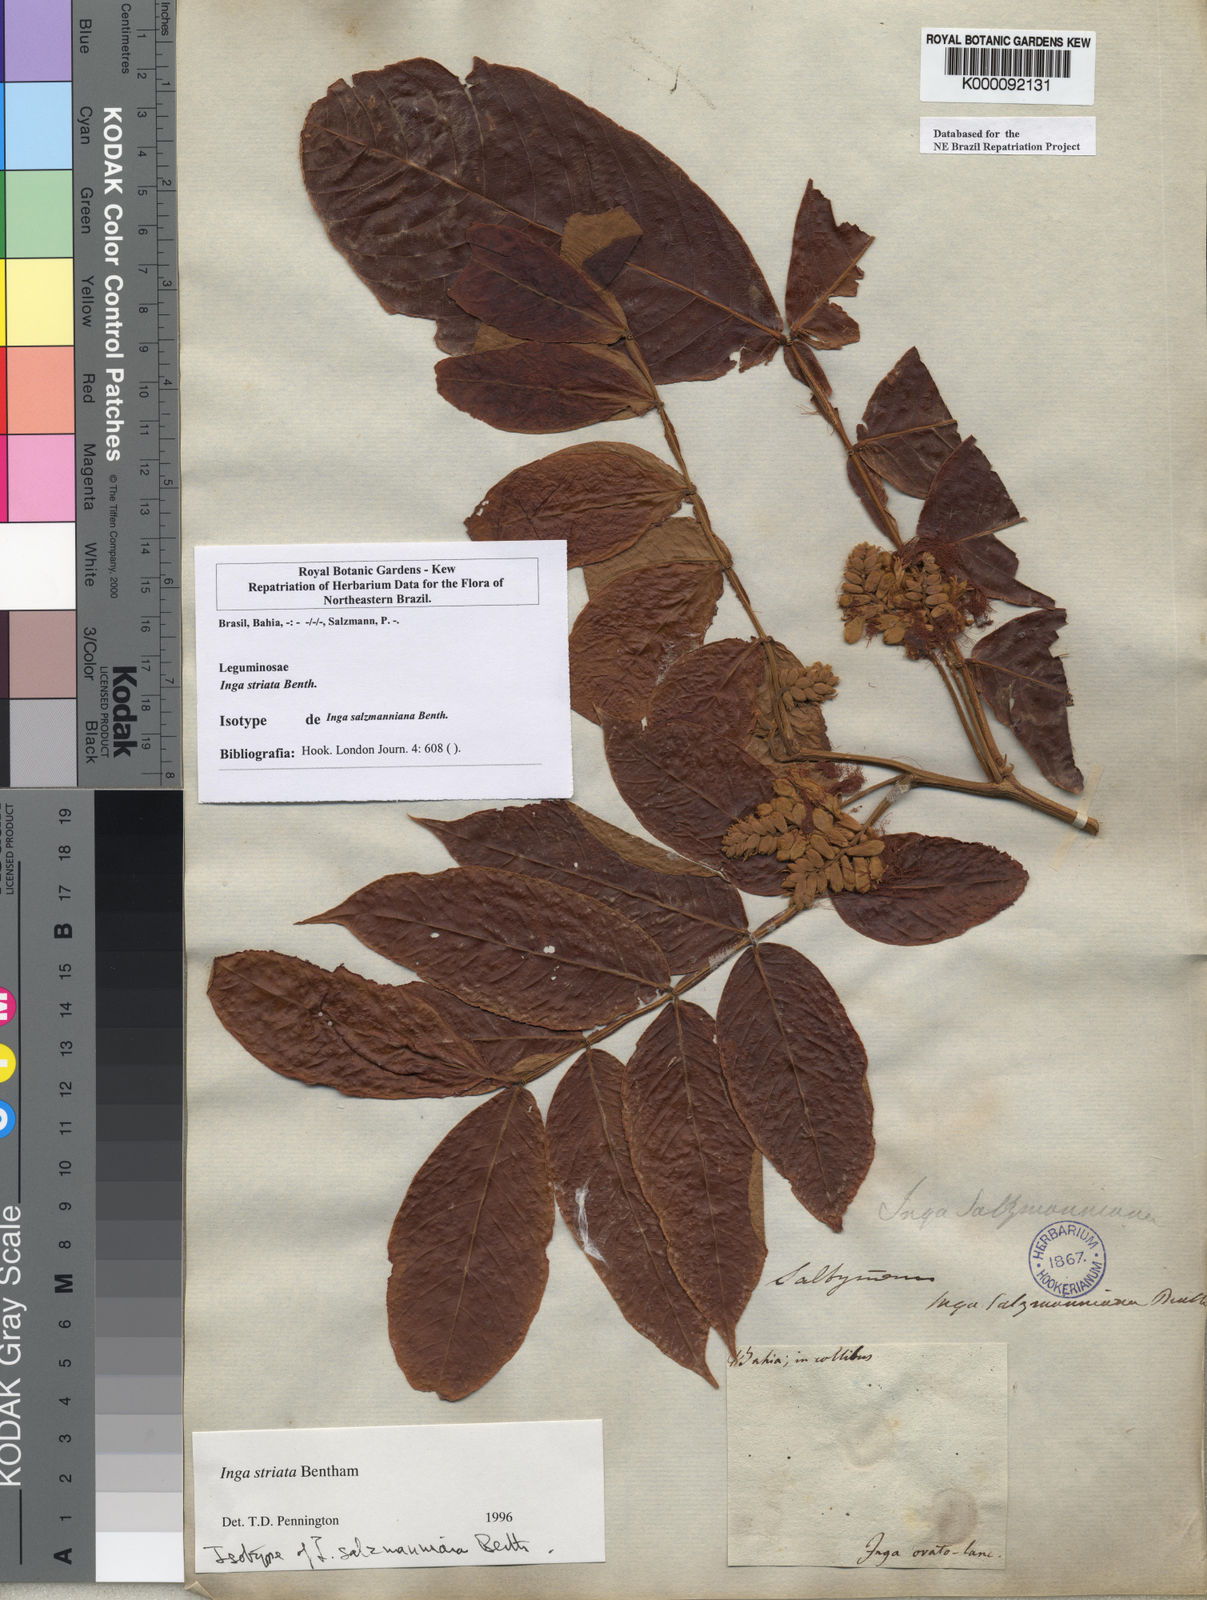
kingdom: Plantae
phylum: Tracheophyta
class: Magnoliopsida
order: Fabales
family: Fabaceae
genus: Inga
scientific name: Inga striata
